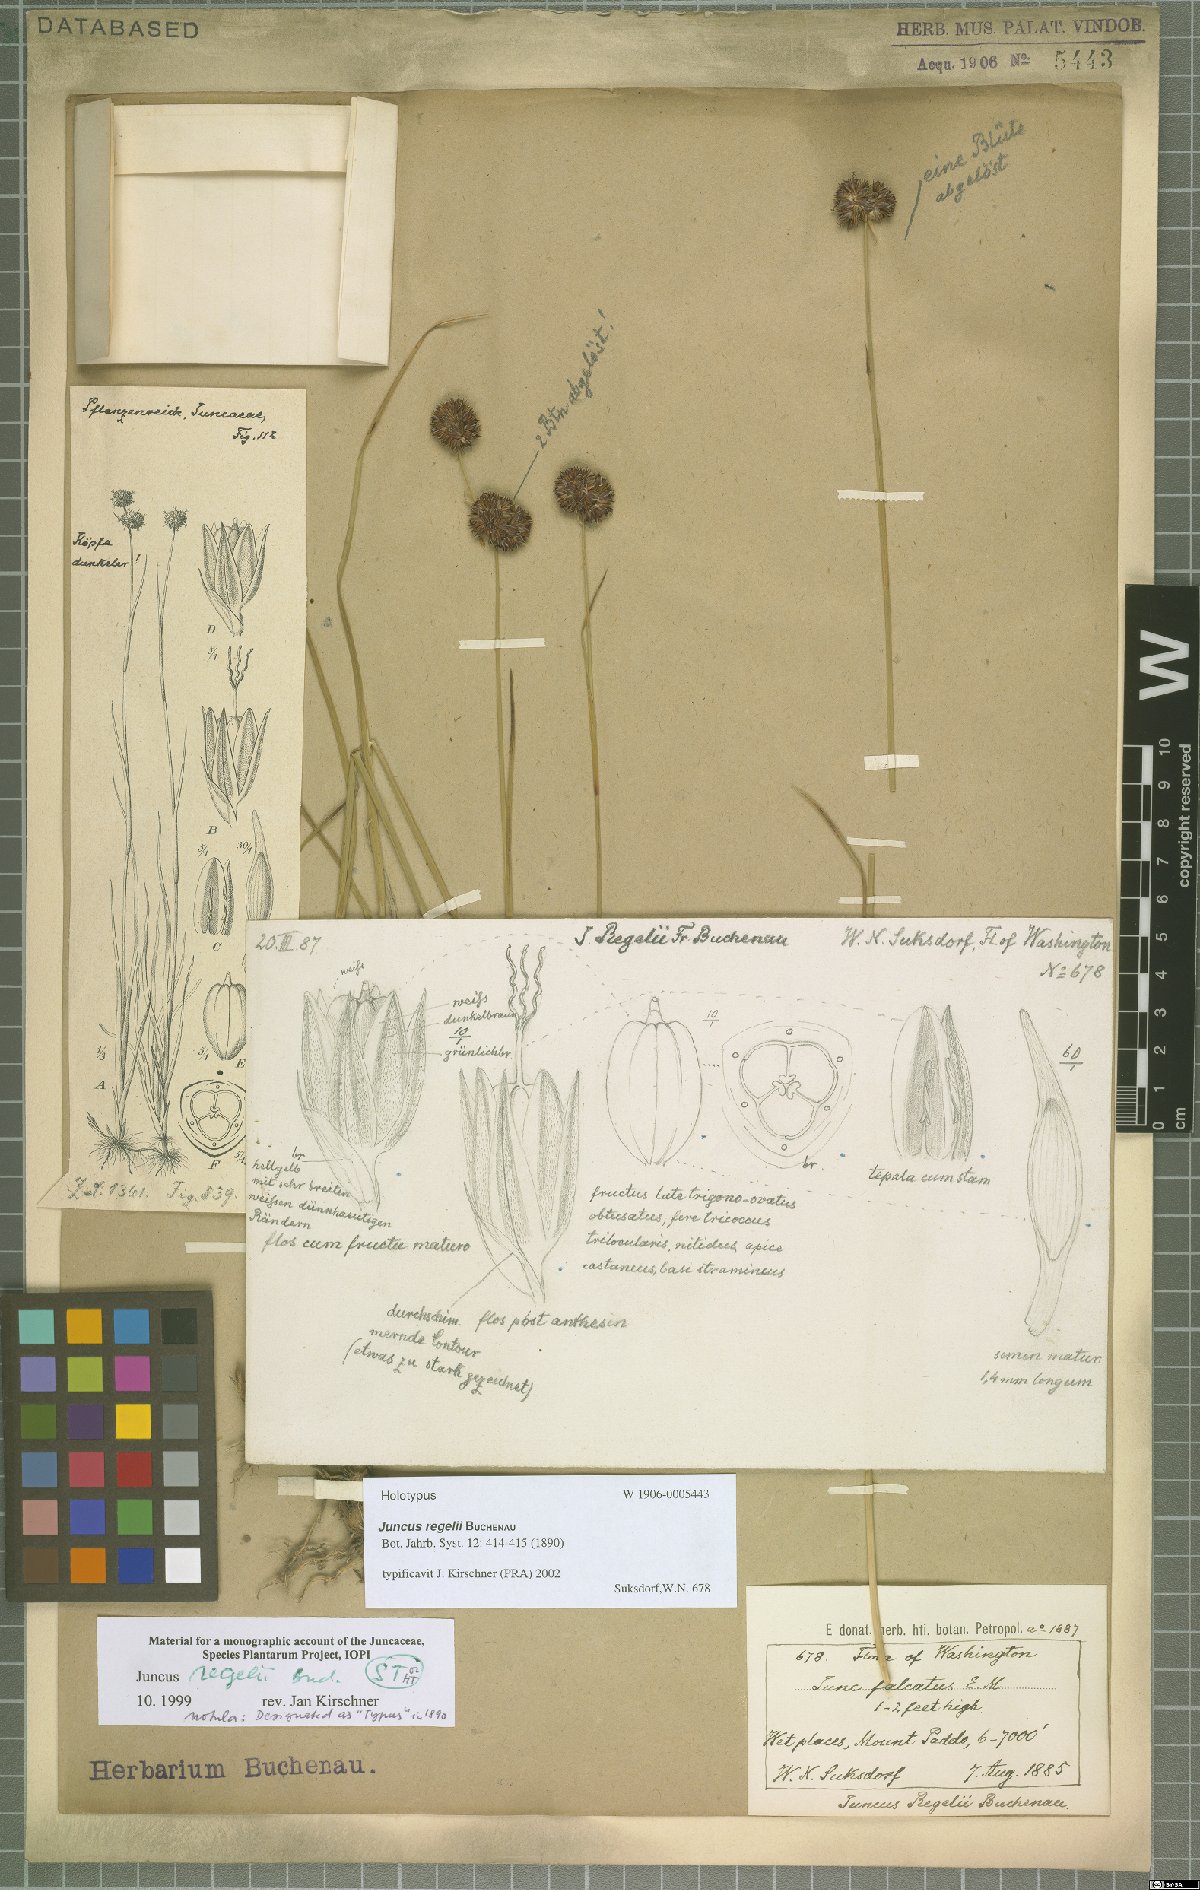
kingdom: Plantae
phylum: Tracheophyta
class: Liliopsida
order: Poales
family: Juncaceae
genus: Juncus
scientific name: Juncus regelii
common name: Regel's rush
